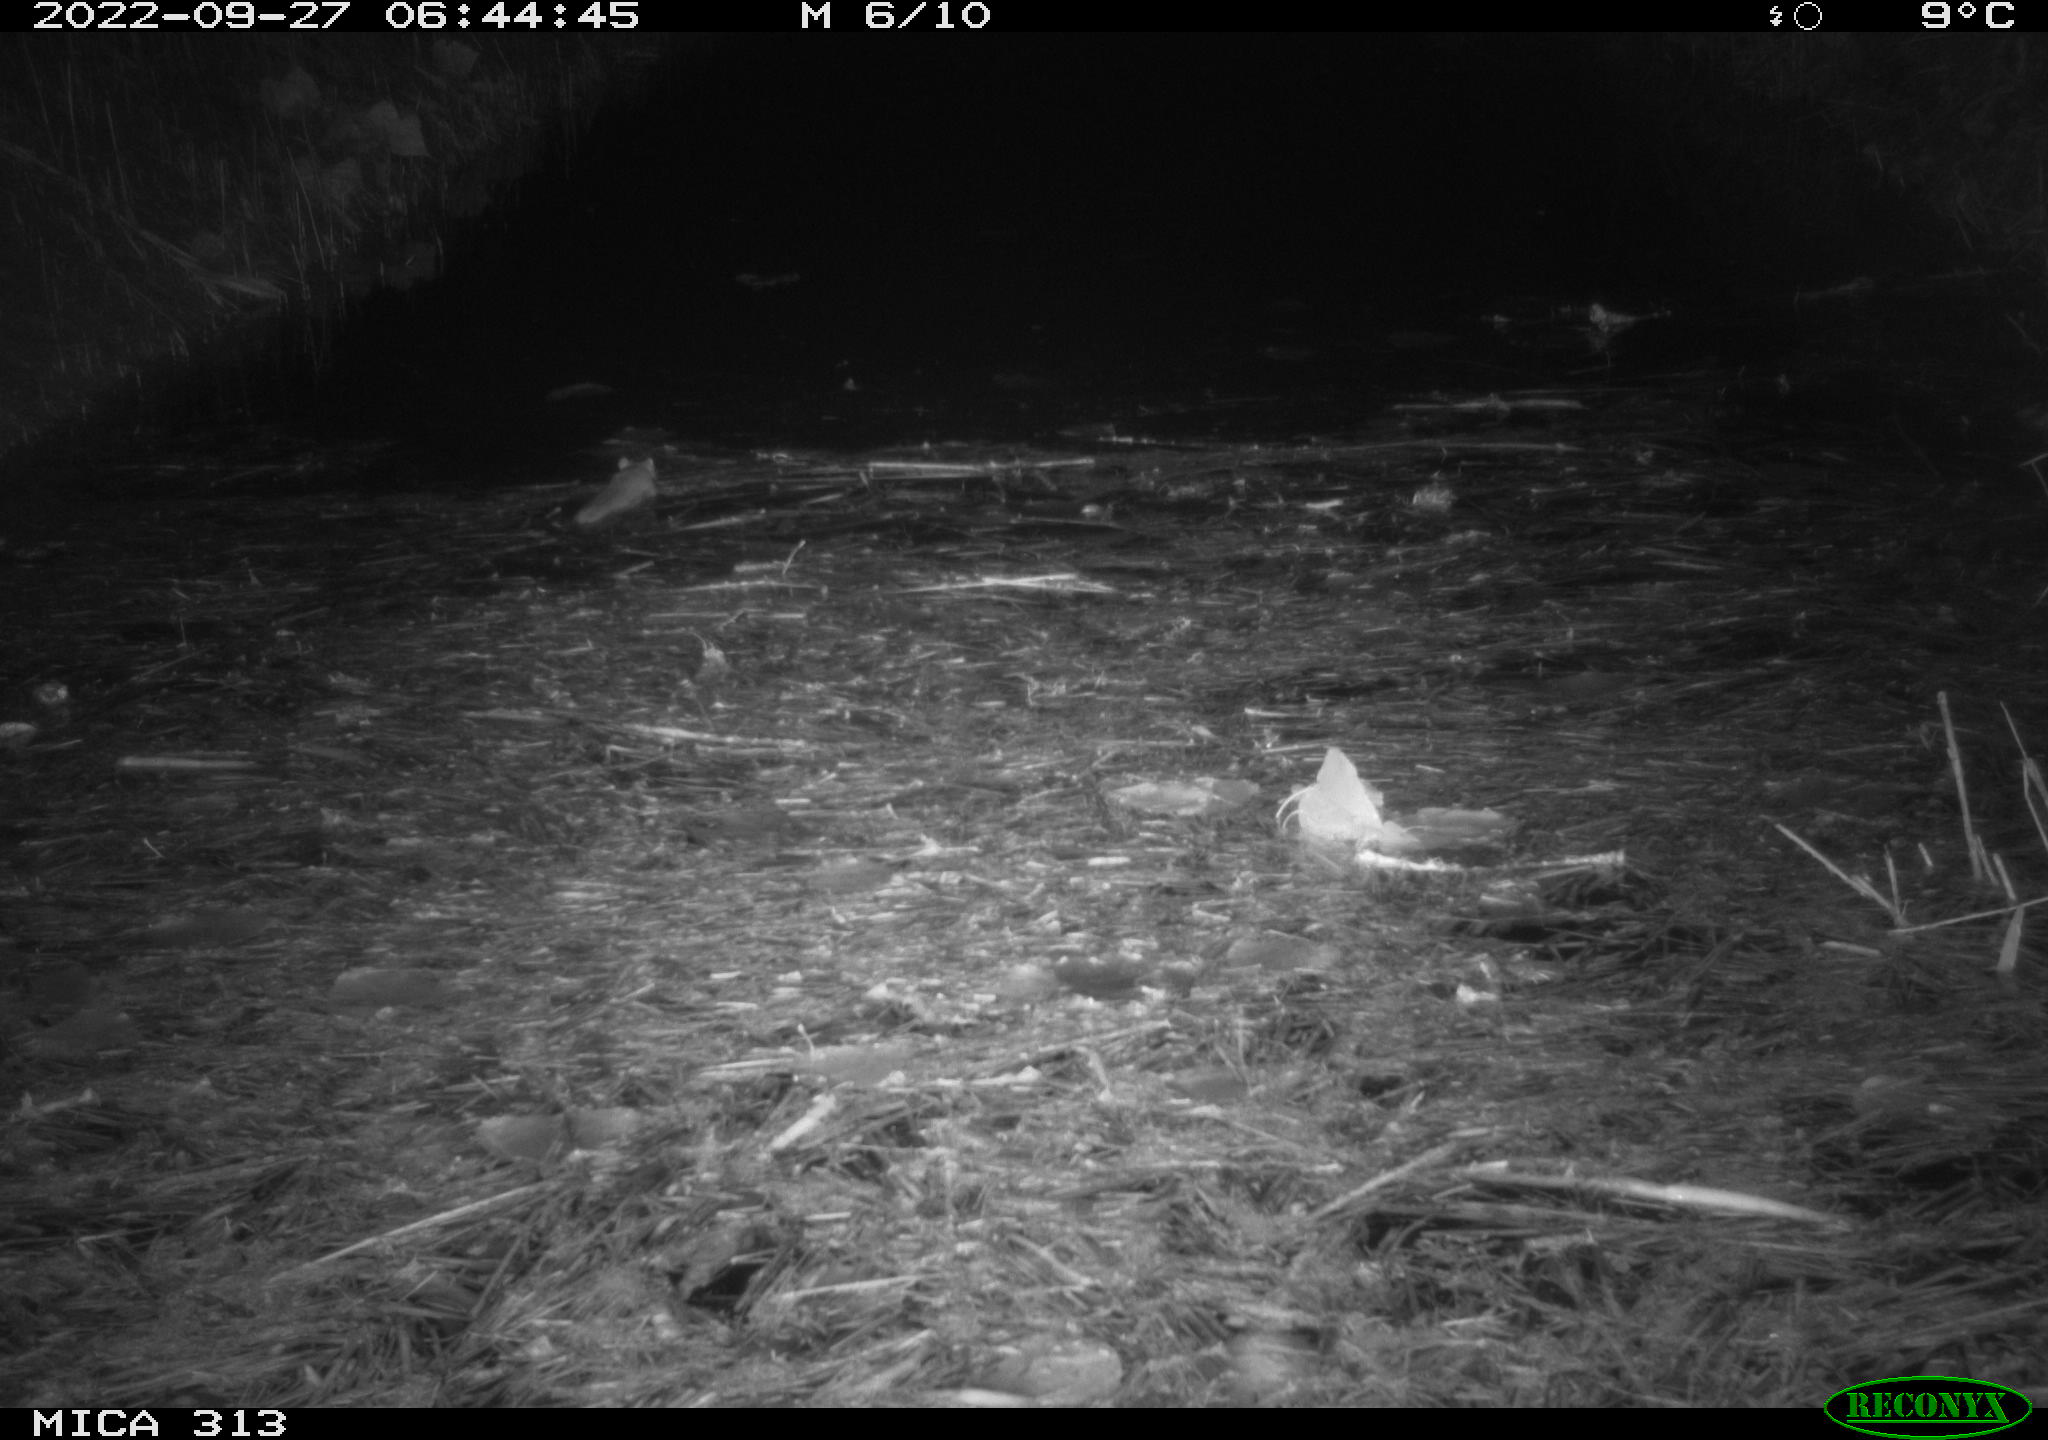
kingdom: Animalia
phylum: Chordata
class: Mammalia
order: Rodentia
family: Muridae
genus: Rattus
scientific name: Rattus norvegicus
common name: Brown rat
